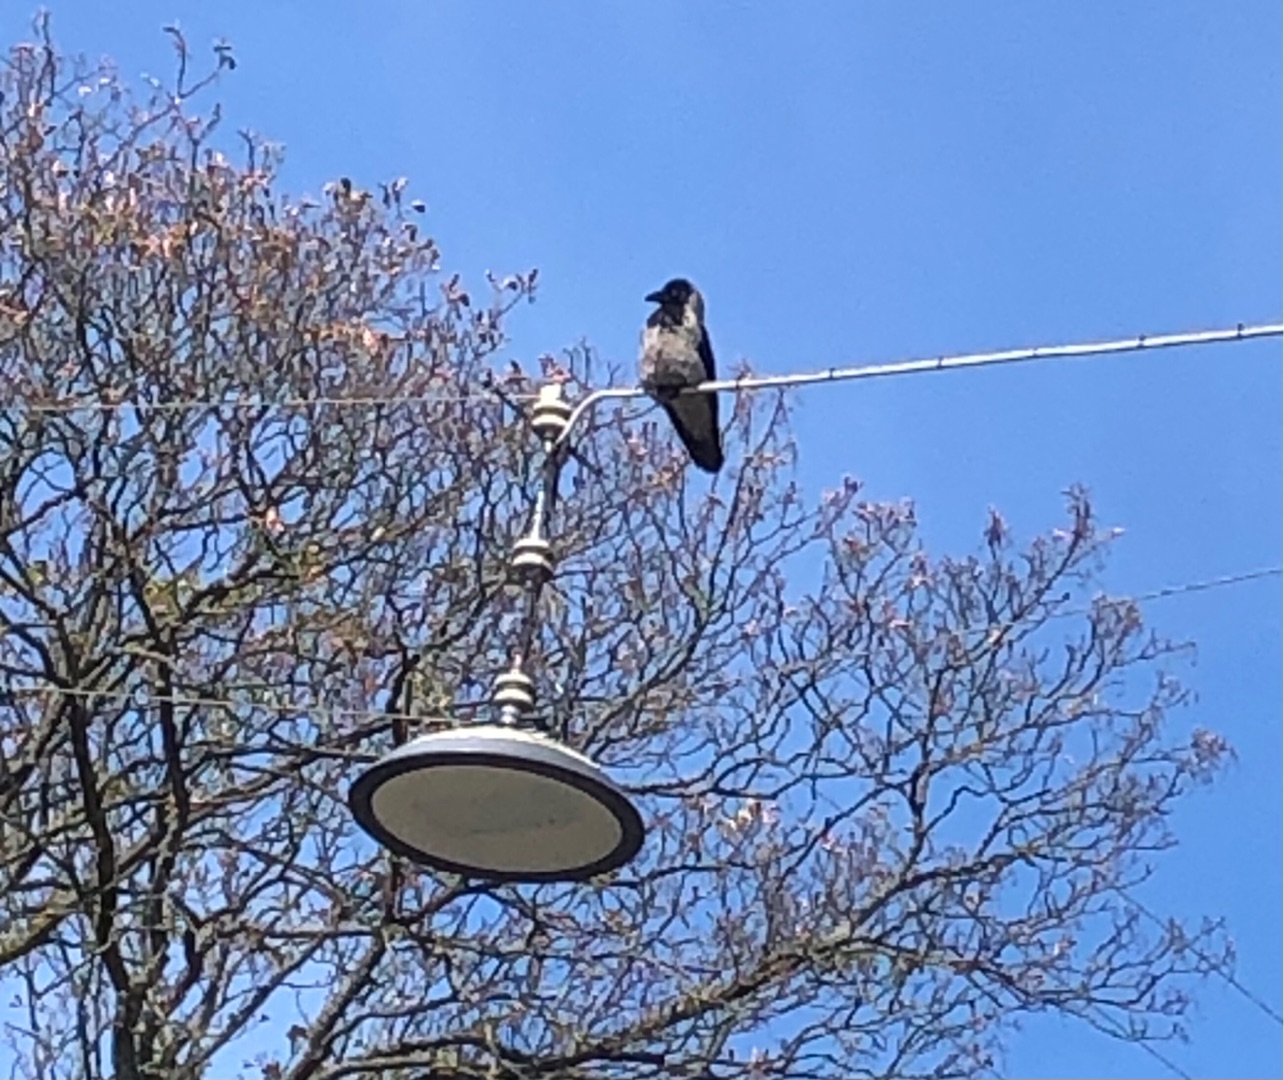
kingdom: Animalia
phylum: Chordata
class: Aves
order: Passeriformes
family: Corvidae
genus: Corvus
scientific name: Corvus cornix
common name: Gråkrage
